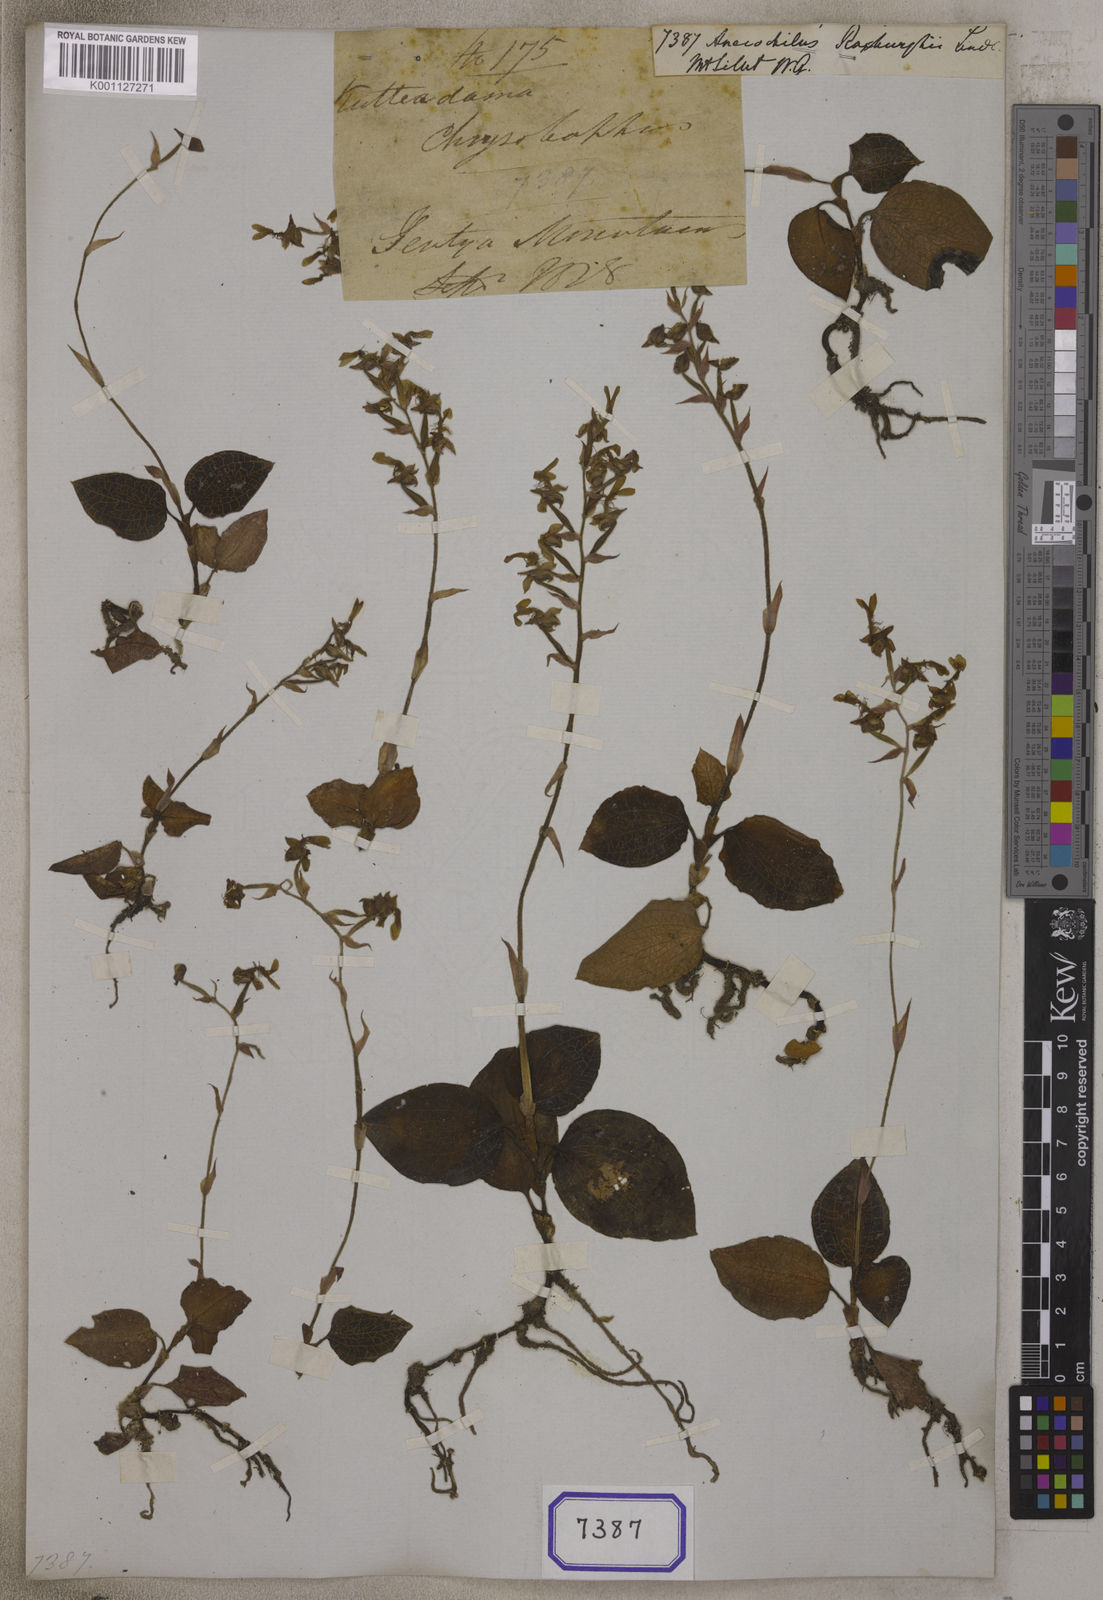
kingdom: Plantae
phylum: Tracheophyta
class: Liliopsida
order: Asparagales
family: Orchidaceae
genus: Anoectochilus
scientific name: Anoectochilus roxburghii
